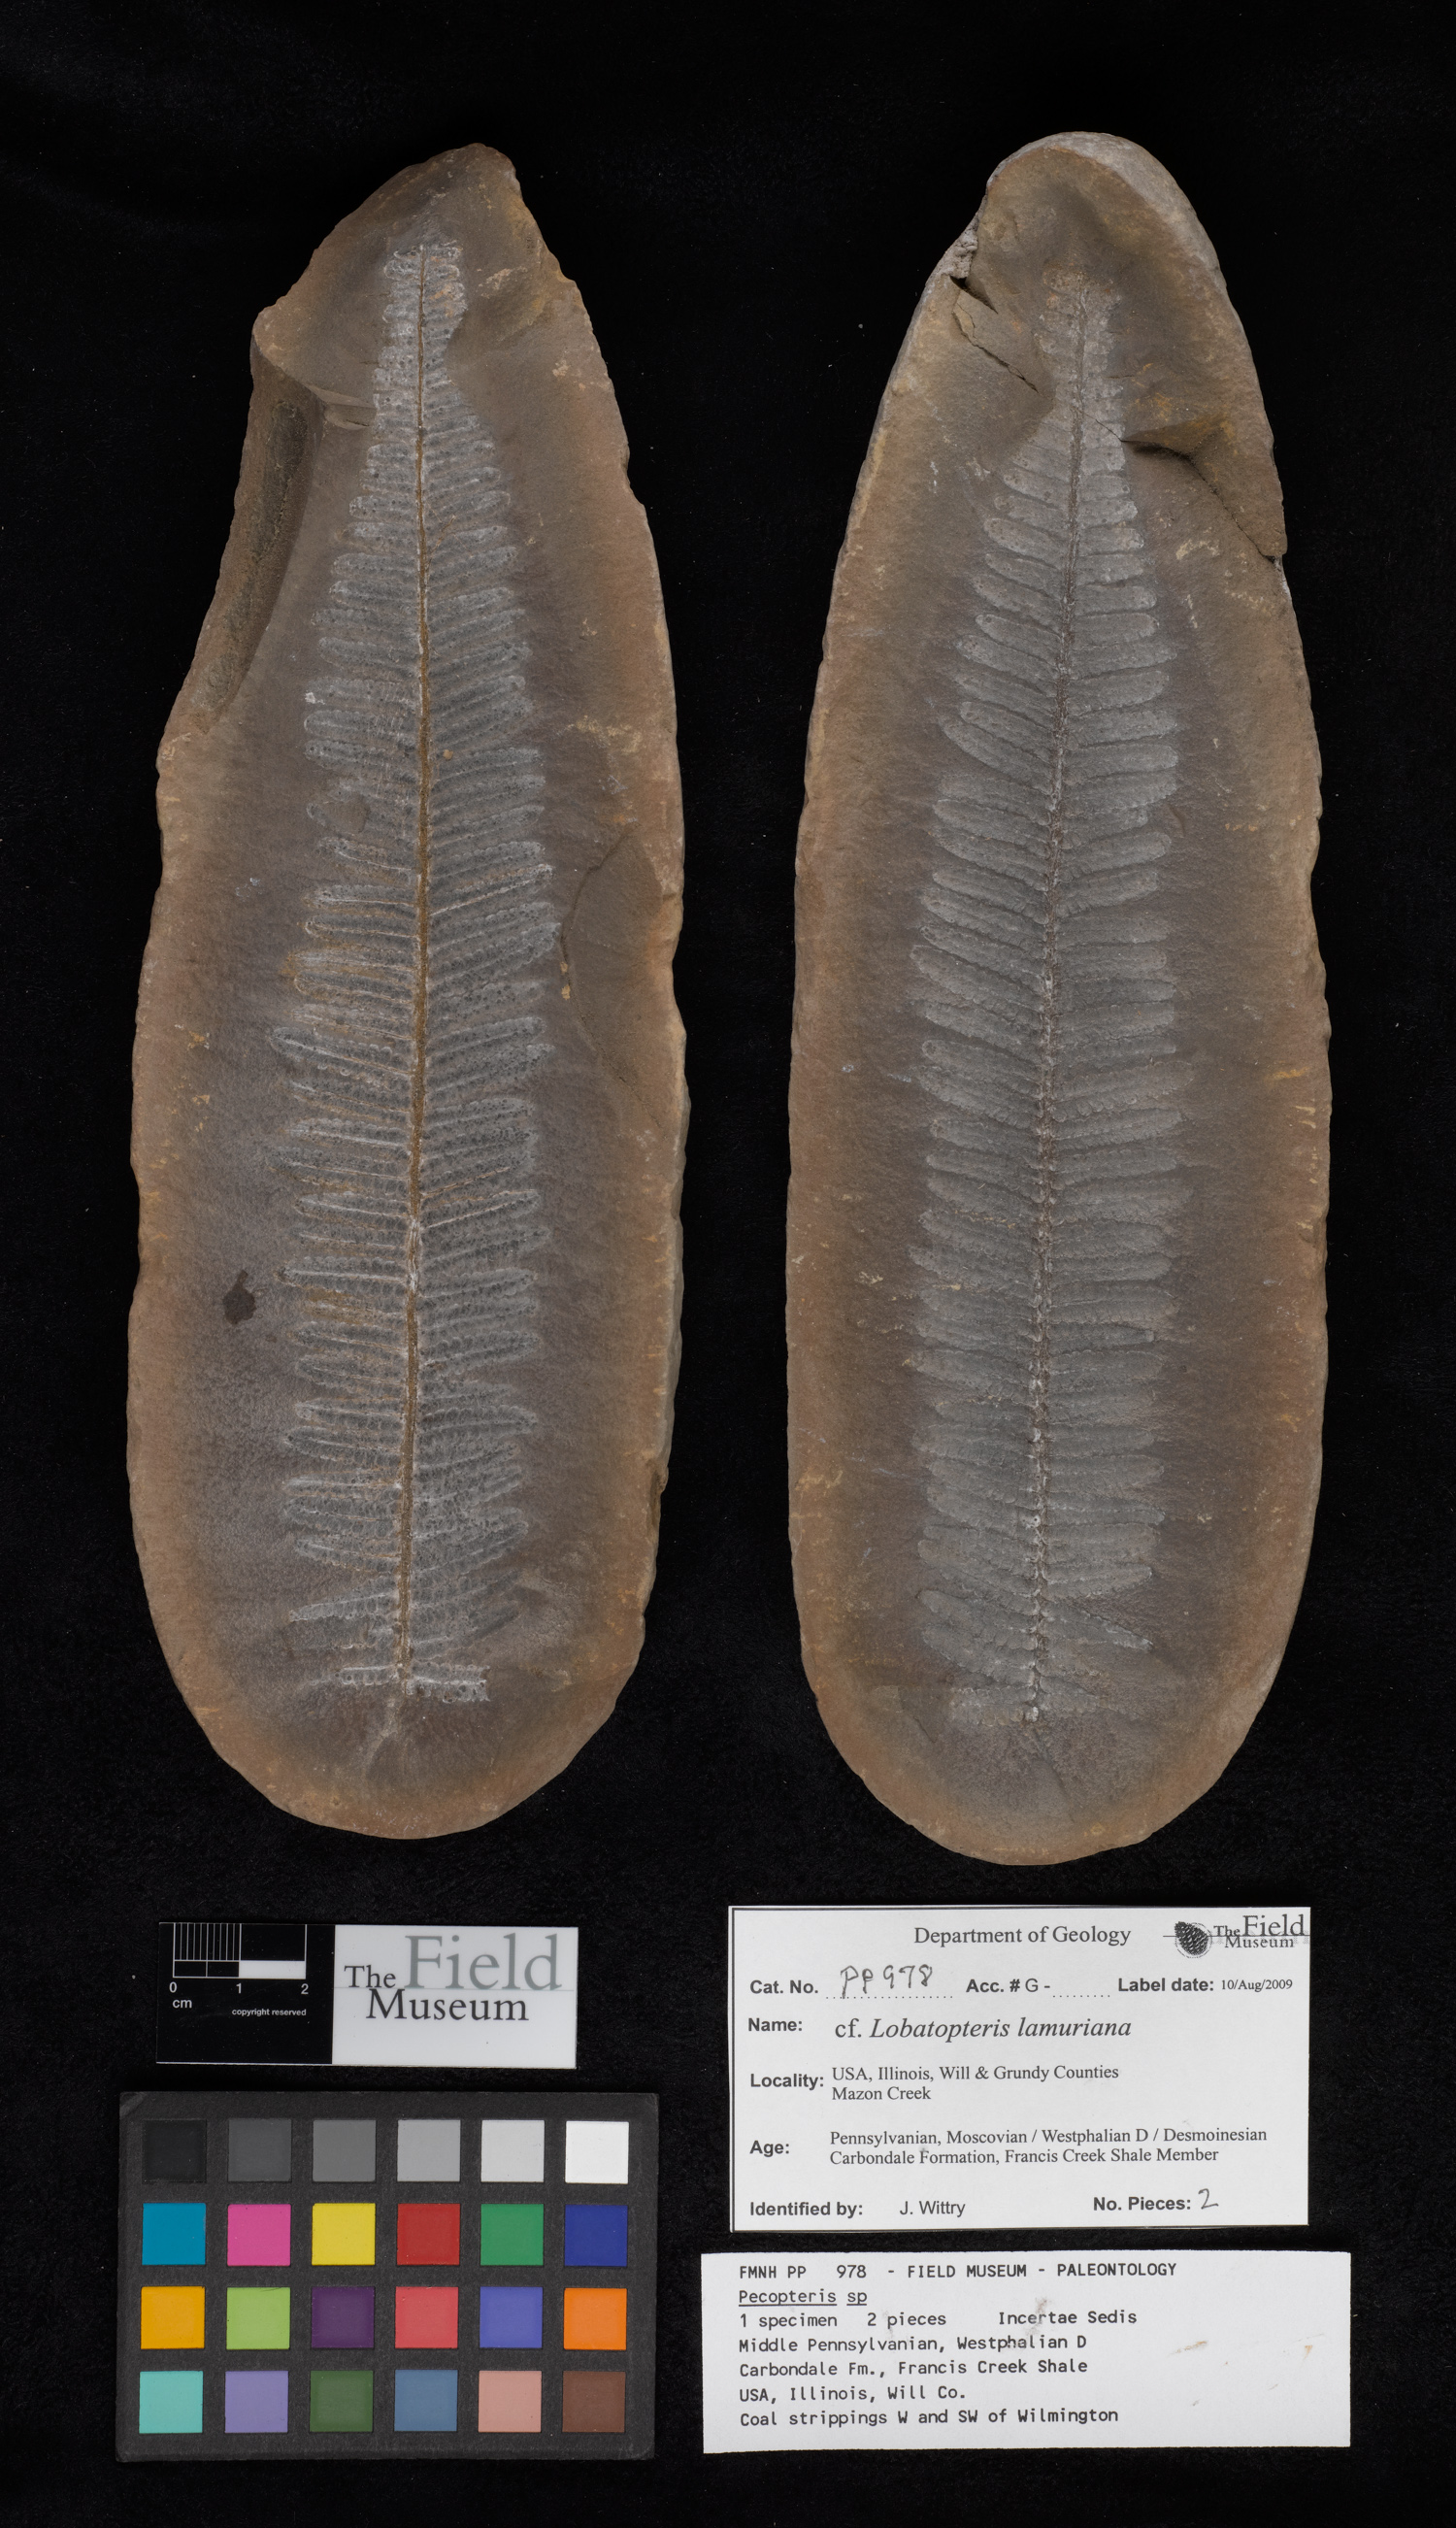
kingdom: Plantae
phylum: Tracheophyta
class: Polypodiopsida
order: Marattiales
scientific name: Marattiales
